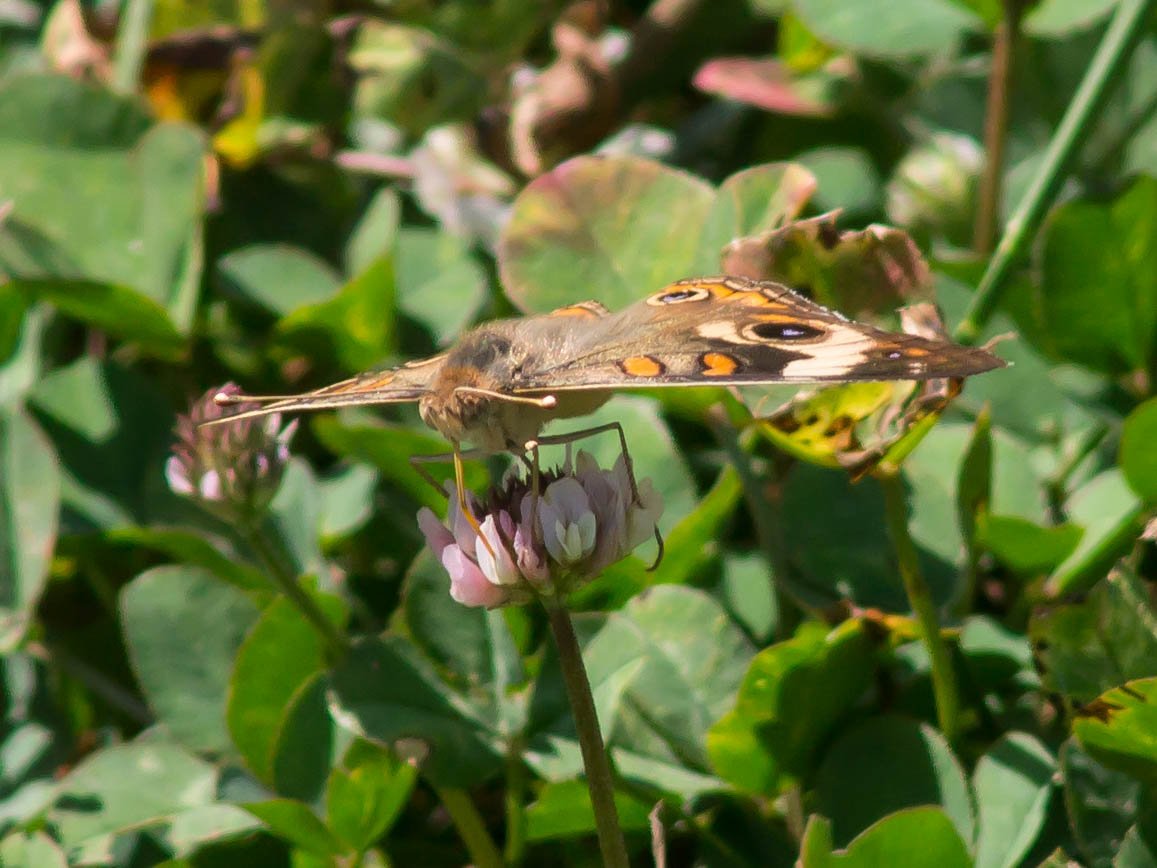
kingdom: Animalia
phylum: Arthropoda
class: Insecta
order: Lepidoptera
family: Nymphalidae
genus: Junonia
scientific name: Junonia coenia
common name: Common Buckeye
